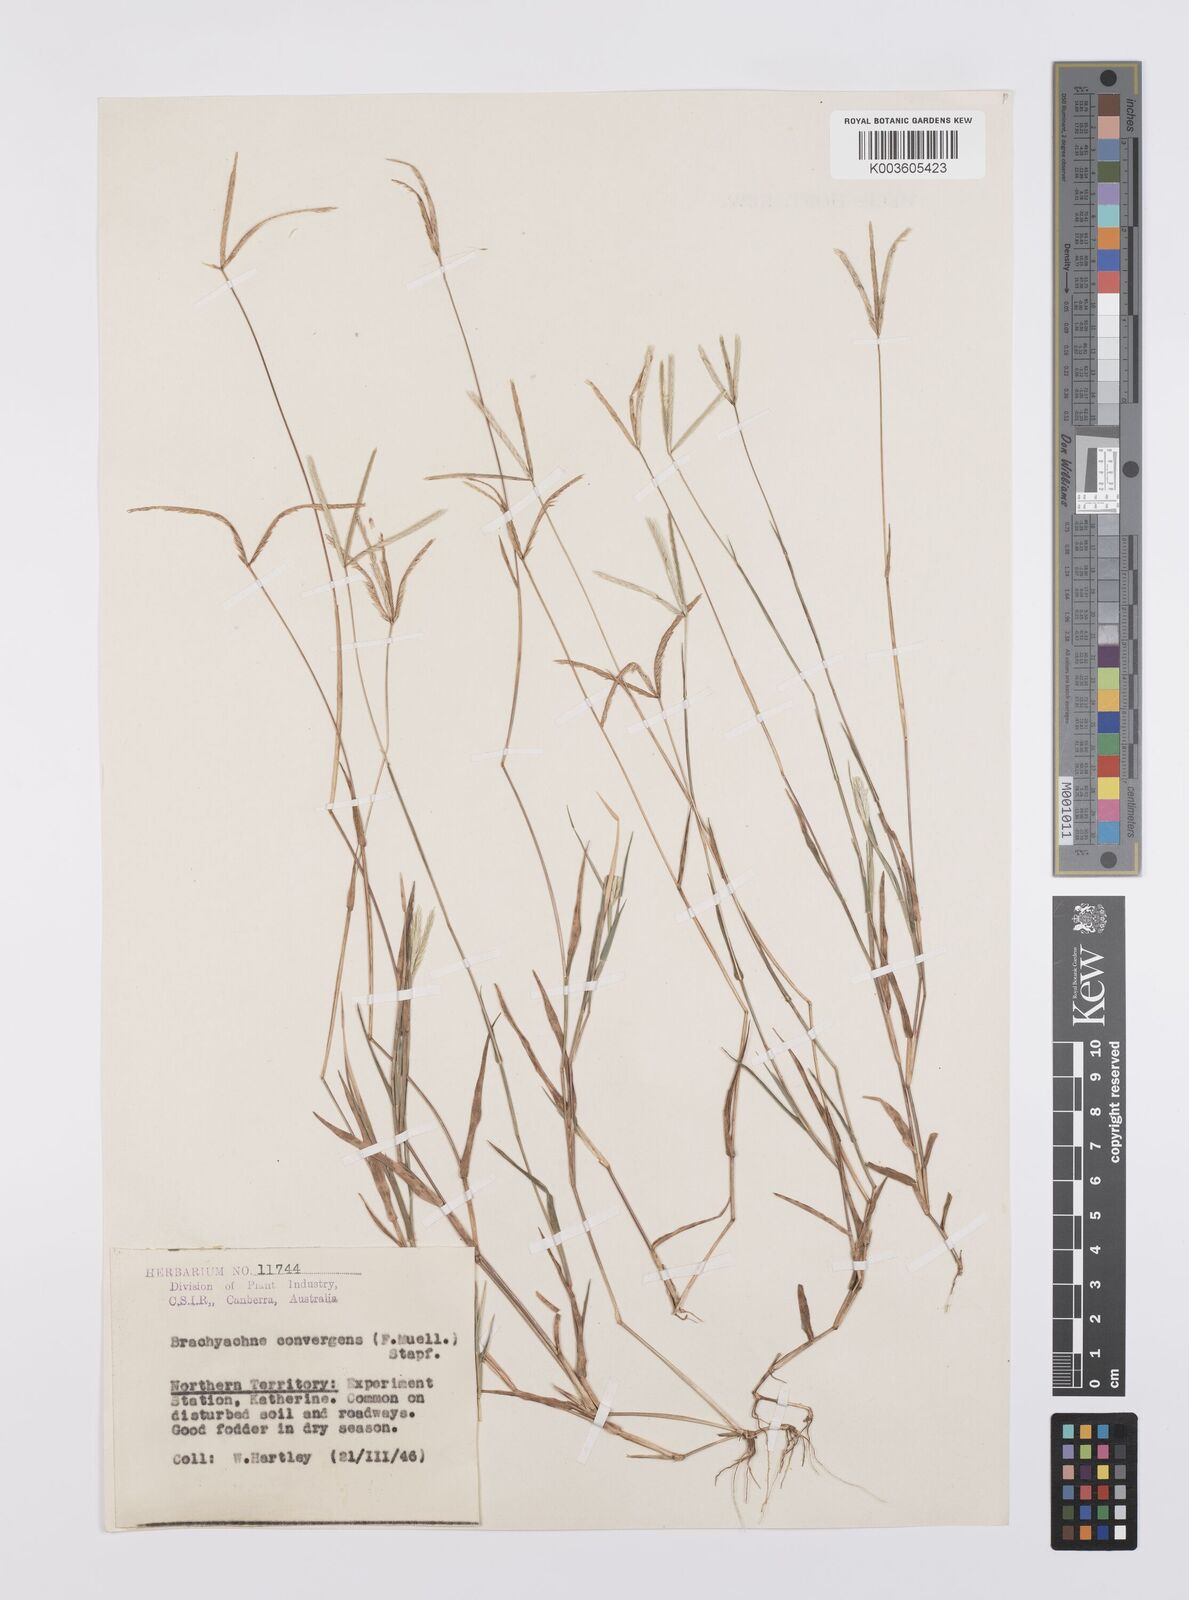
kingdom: Plantae
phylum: Tracheophyta
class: Liliopsida
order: Poales
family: Poaceae
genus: Cynodon
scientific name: Cynodon convergens
